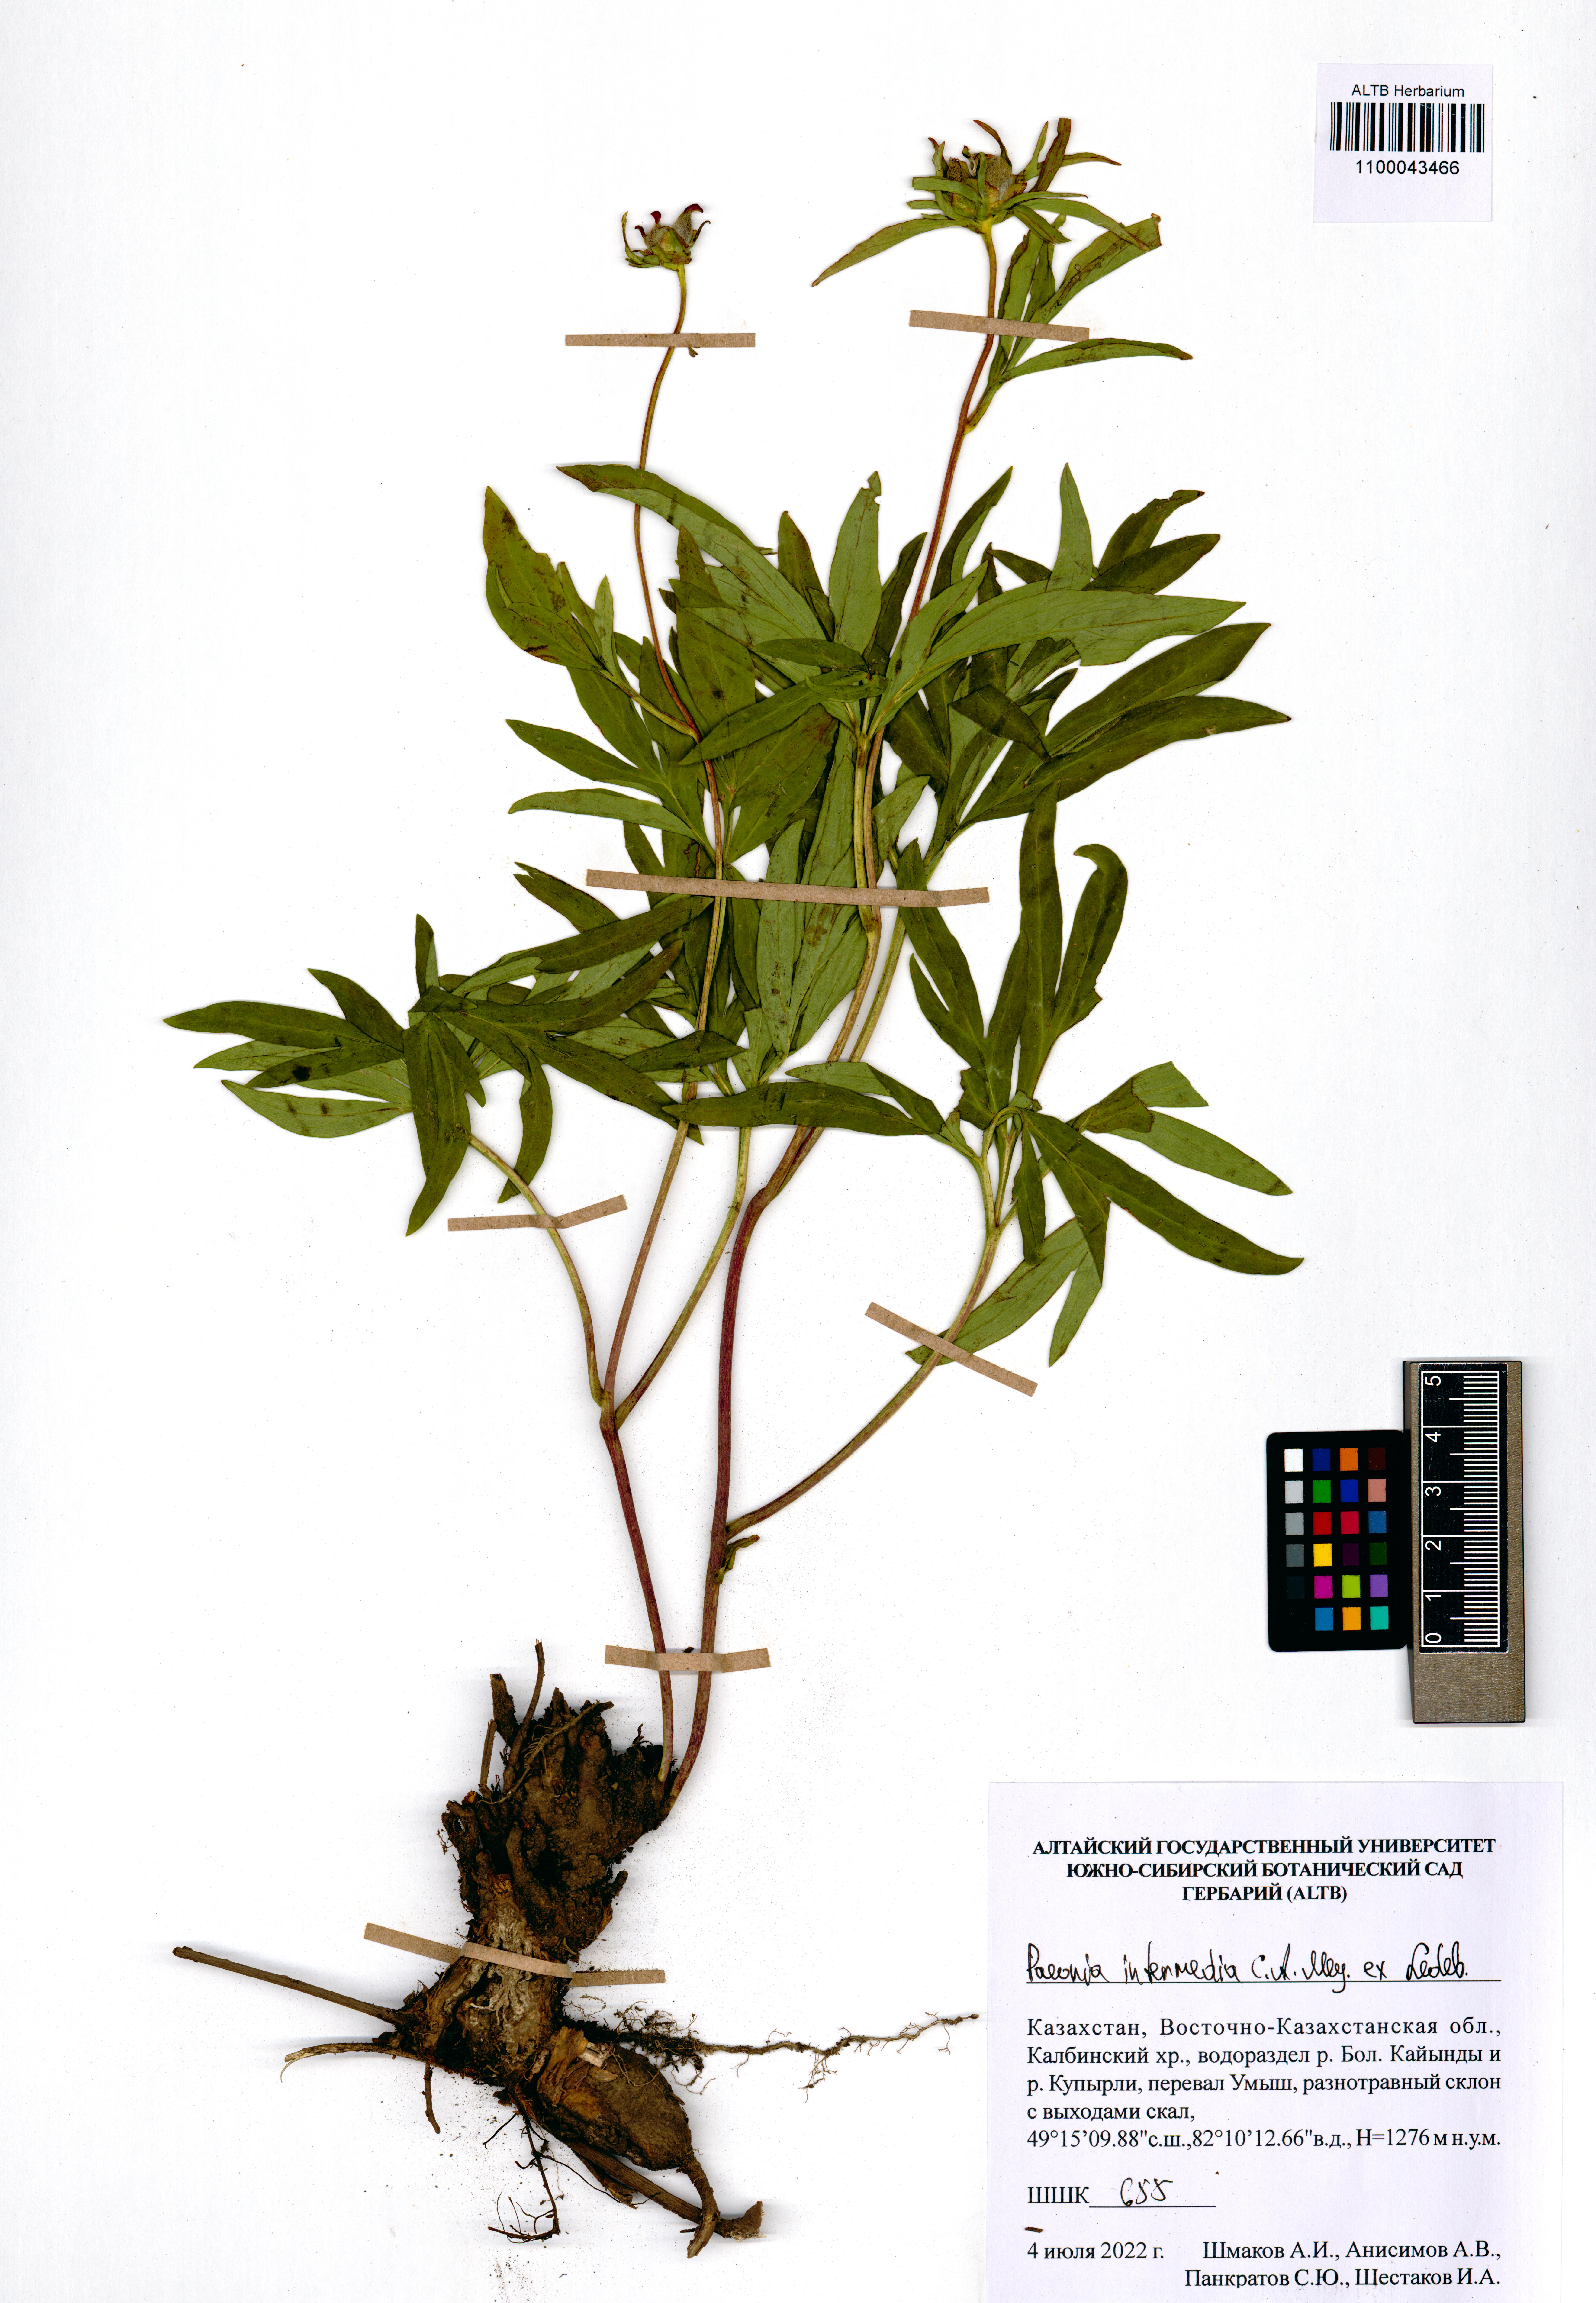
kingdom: Plantae
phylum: Tracheophyta
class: Magnoliopsida
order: Saxifragales
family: Paeoniaceae
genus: Paeonia
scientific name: Paeonia intermedia
